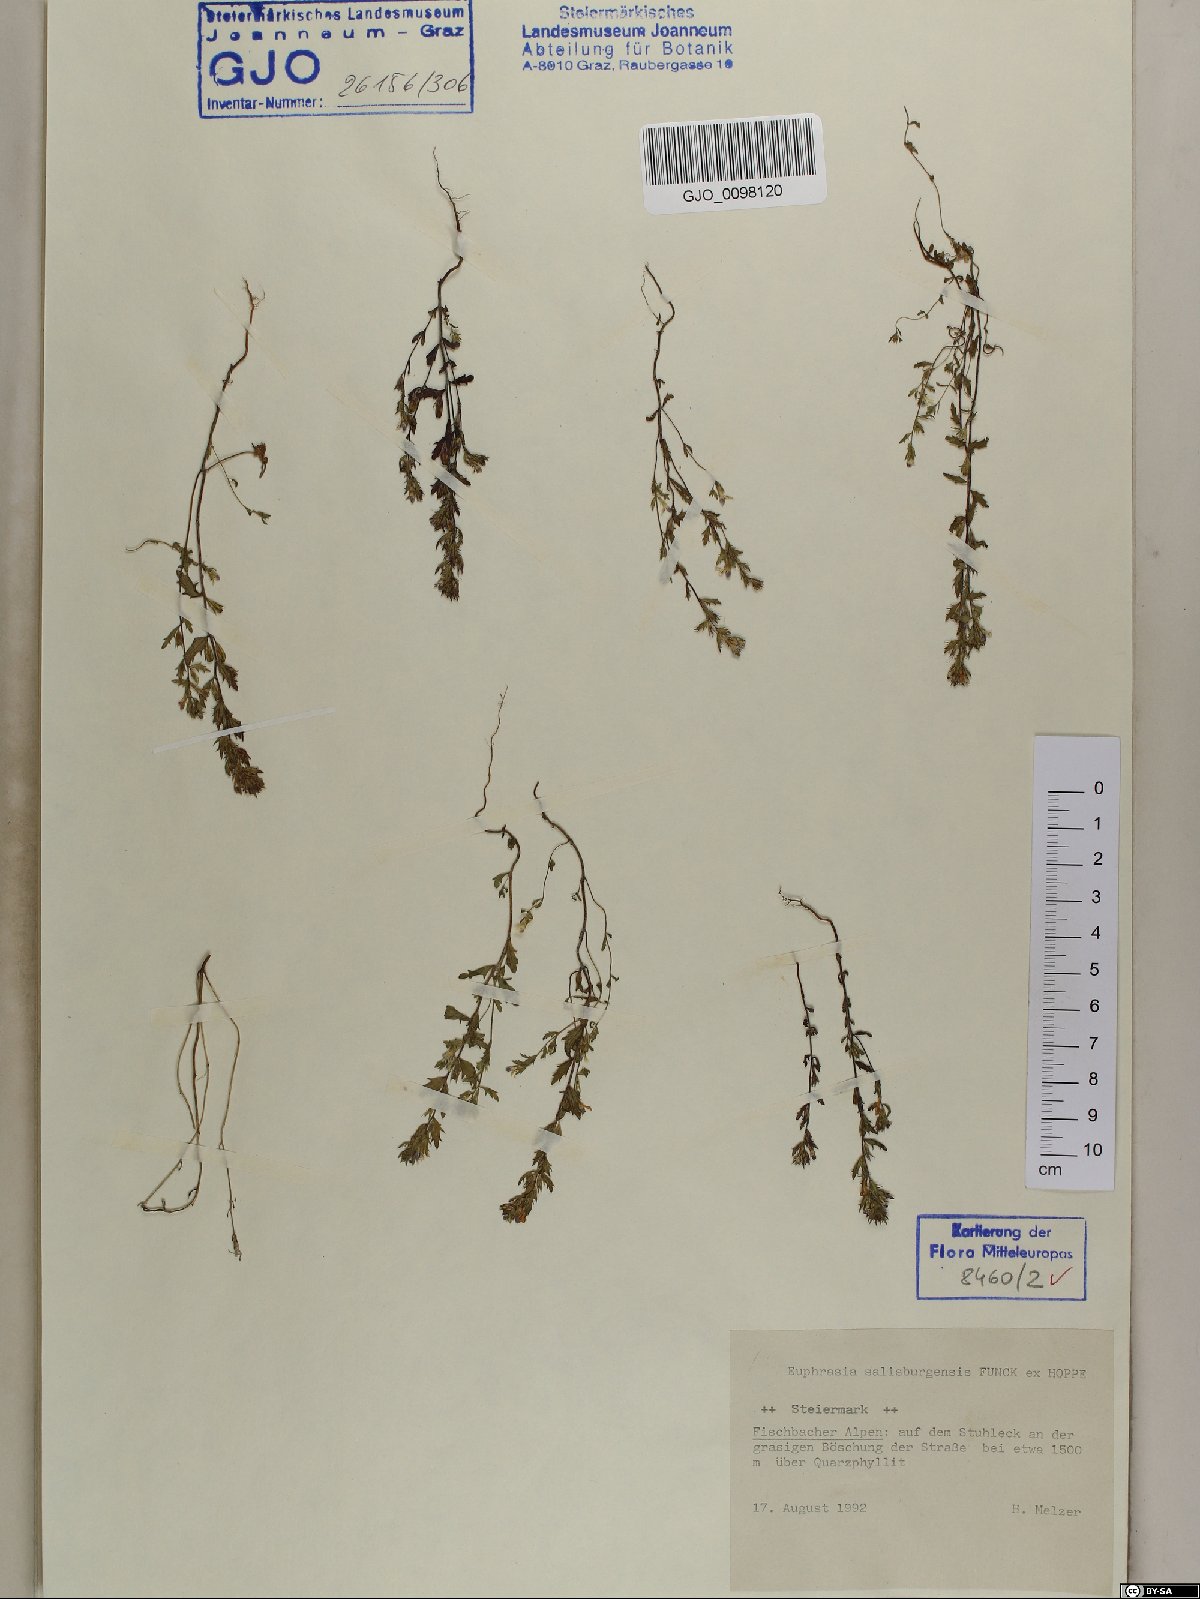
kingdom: Plantae
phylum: Tracheophyta
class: Magnoliopsida
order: Lamiales
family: Orobanchaceae
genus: Euphrasia
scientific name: Euphrasia salisburgensis
